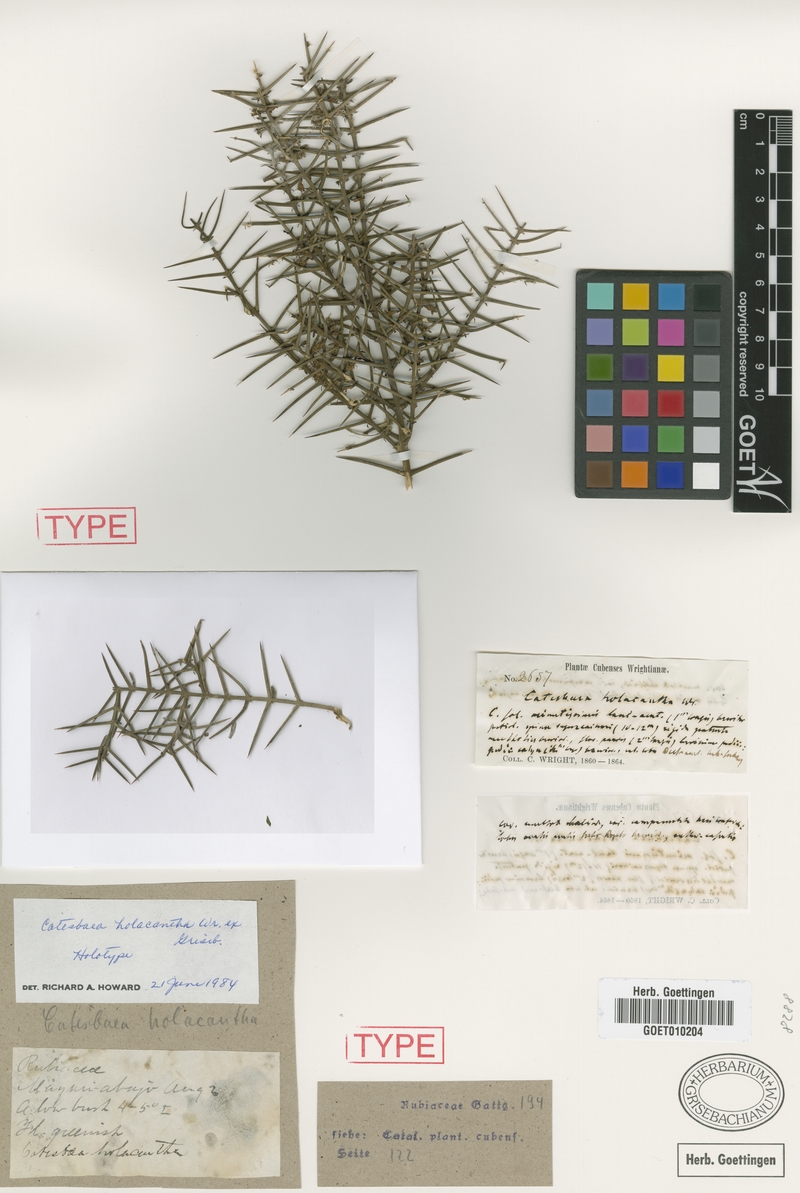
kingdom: Plantae
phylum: Tracheophyta
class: Magnoliopsida
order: Gentianales
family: Rubiaceae
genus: Catesbaea
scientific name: Catesbaea holacantha
